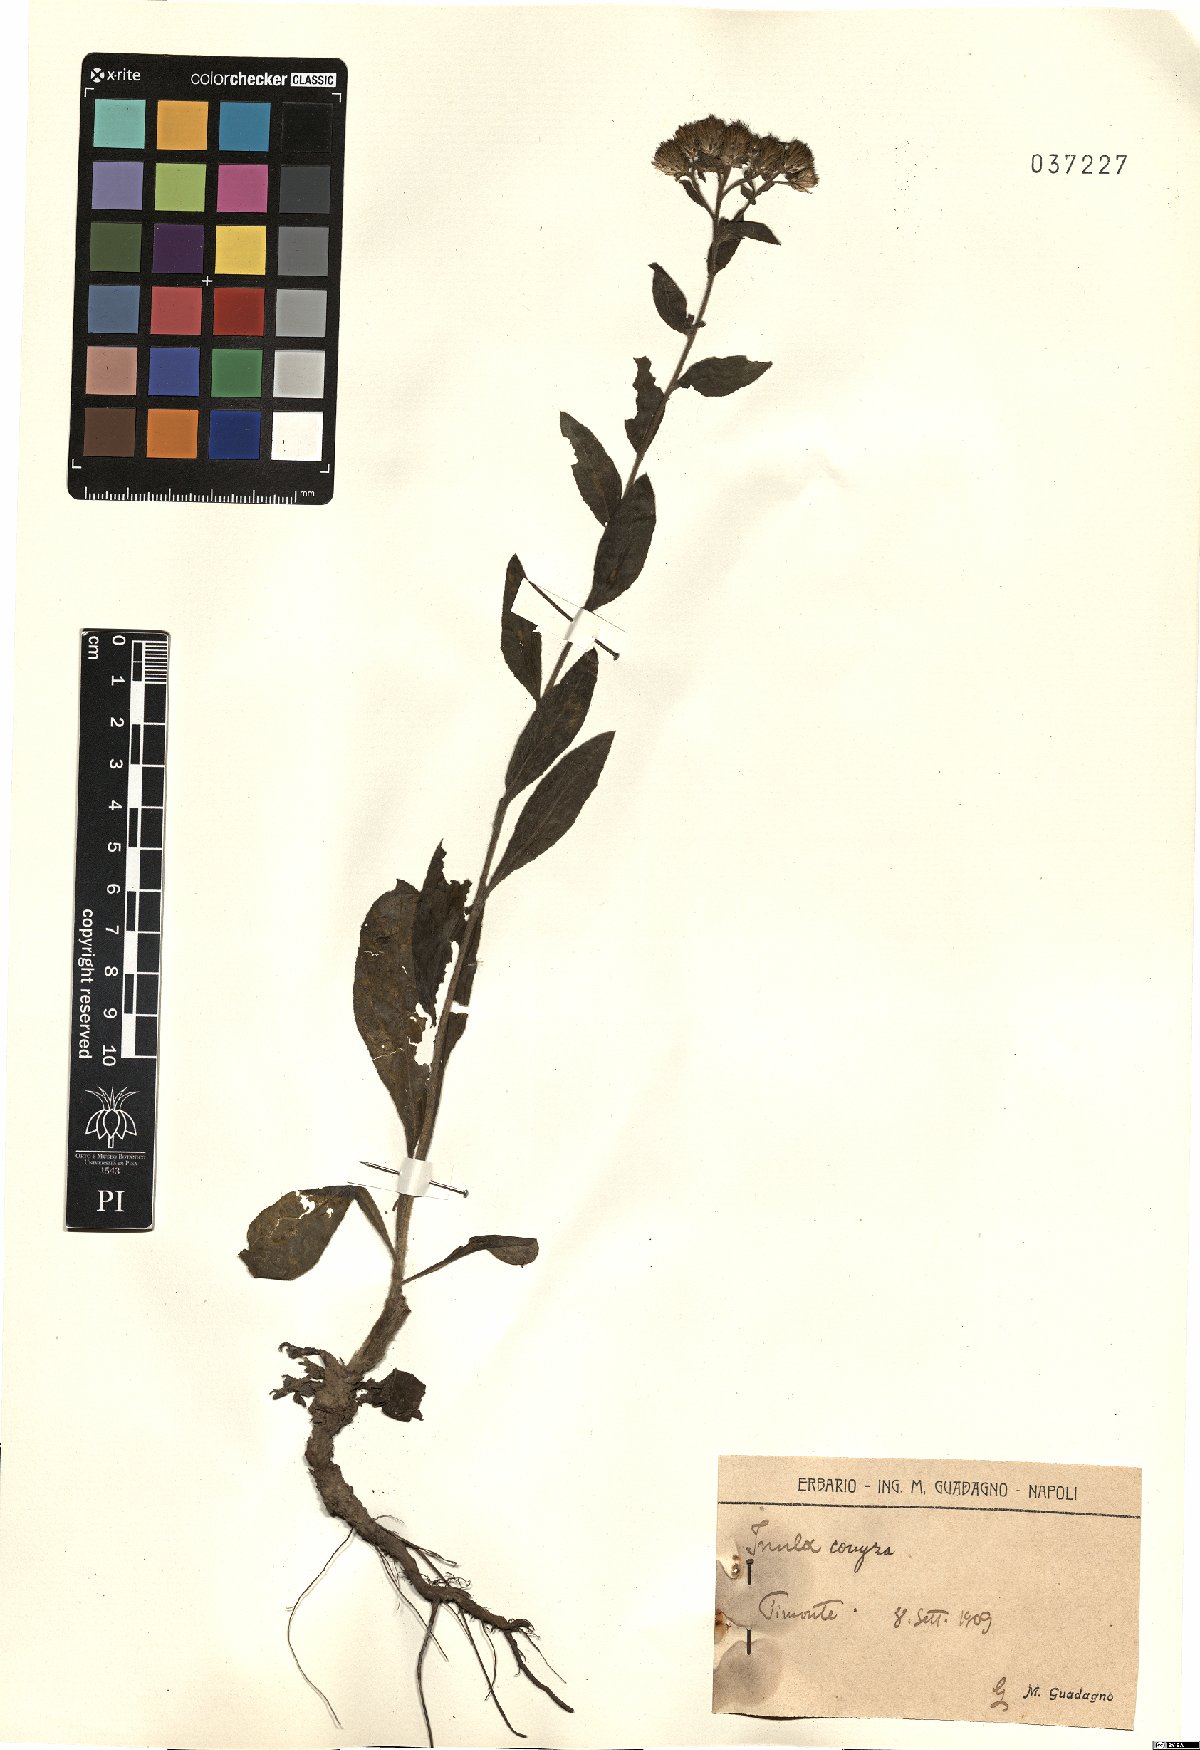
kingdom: Plantae
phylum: Tracheophyta
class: Magnoliopsida
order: Asterales
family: Asteraceae
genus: Pentanema
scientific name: Pentanema squarrosum
